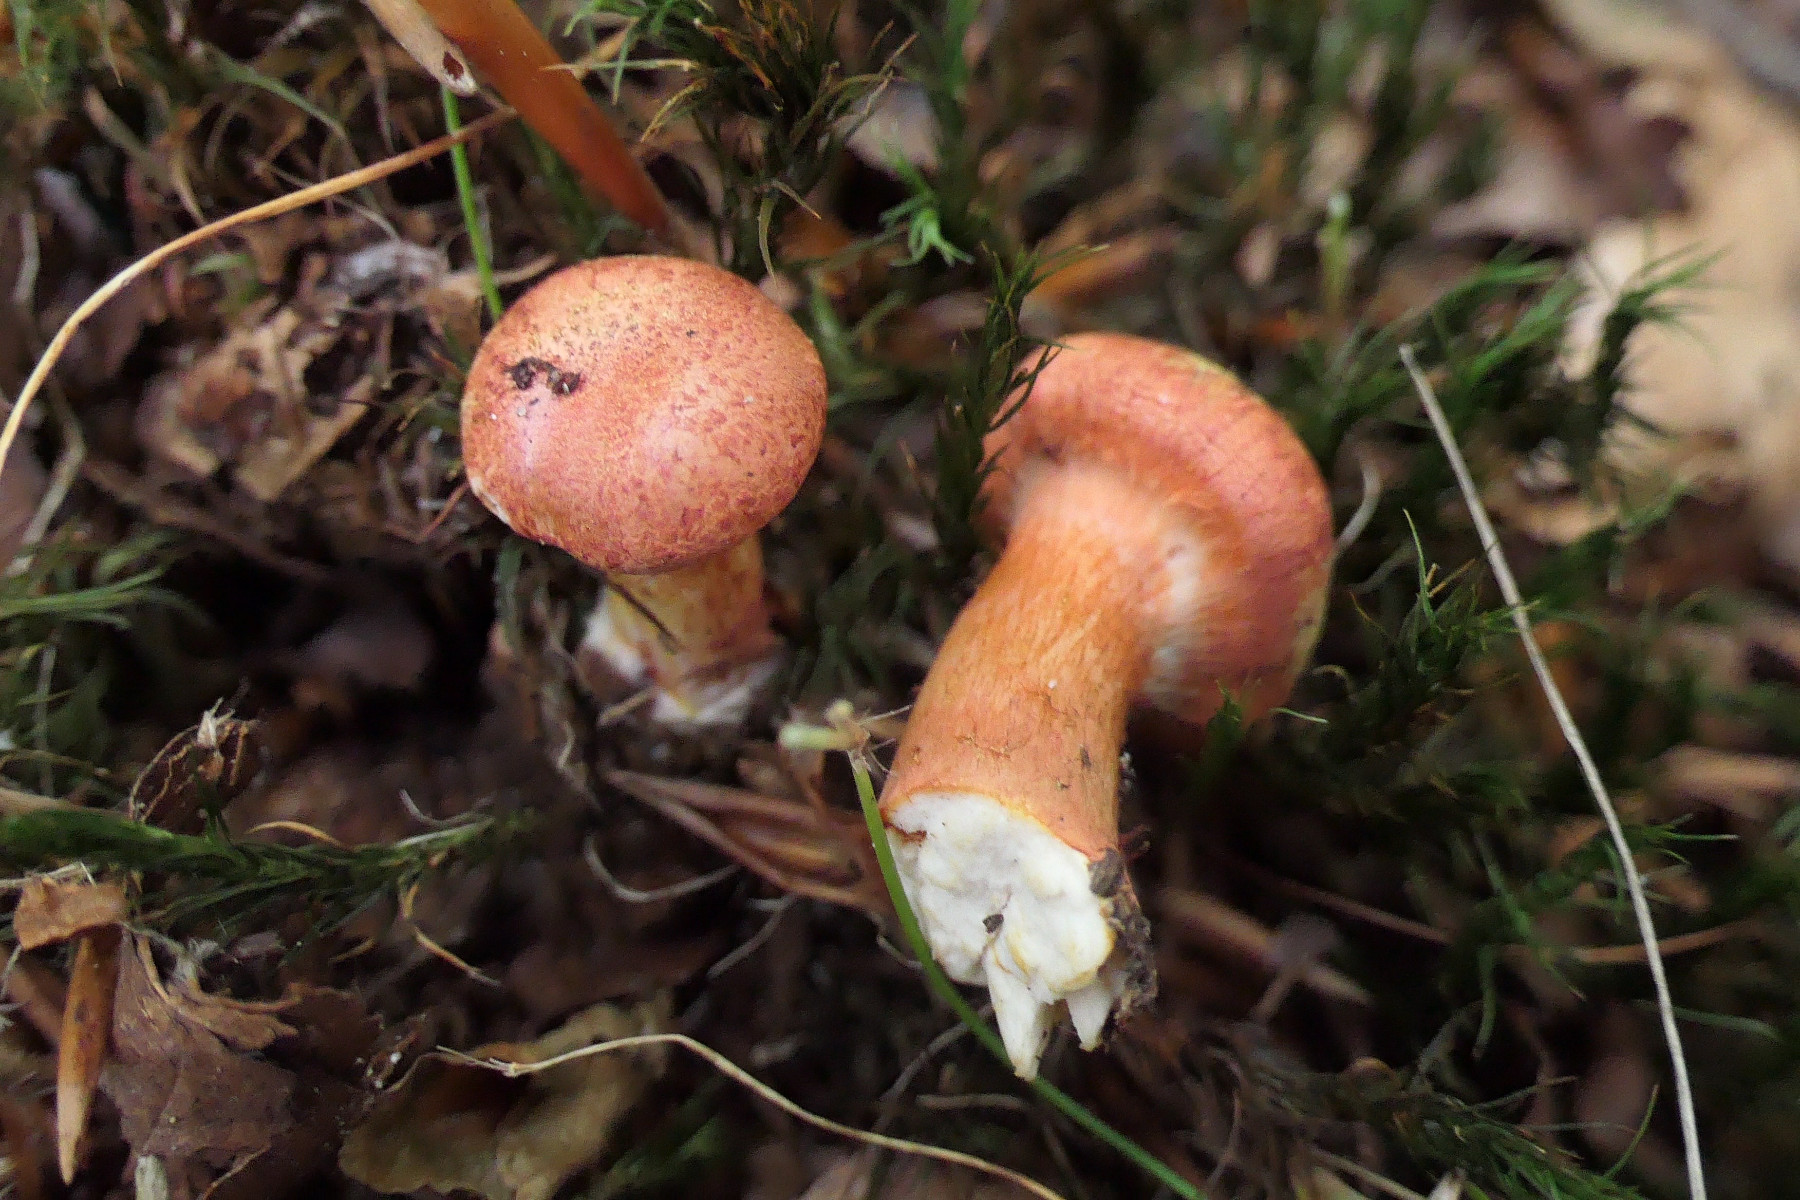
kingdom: Fungi
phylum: Basidiomycota
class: Agaricomycetes
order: Agaricales
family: Cortinariaceae
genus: Cortinarius
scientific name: Cortinarius bolaris
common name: cinnoberskællet slørhat
